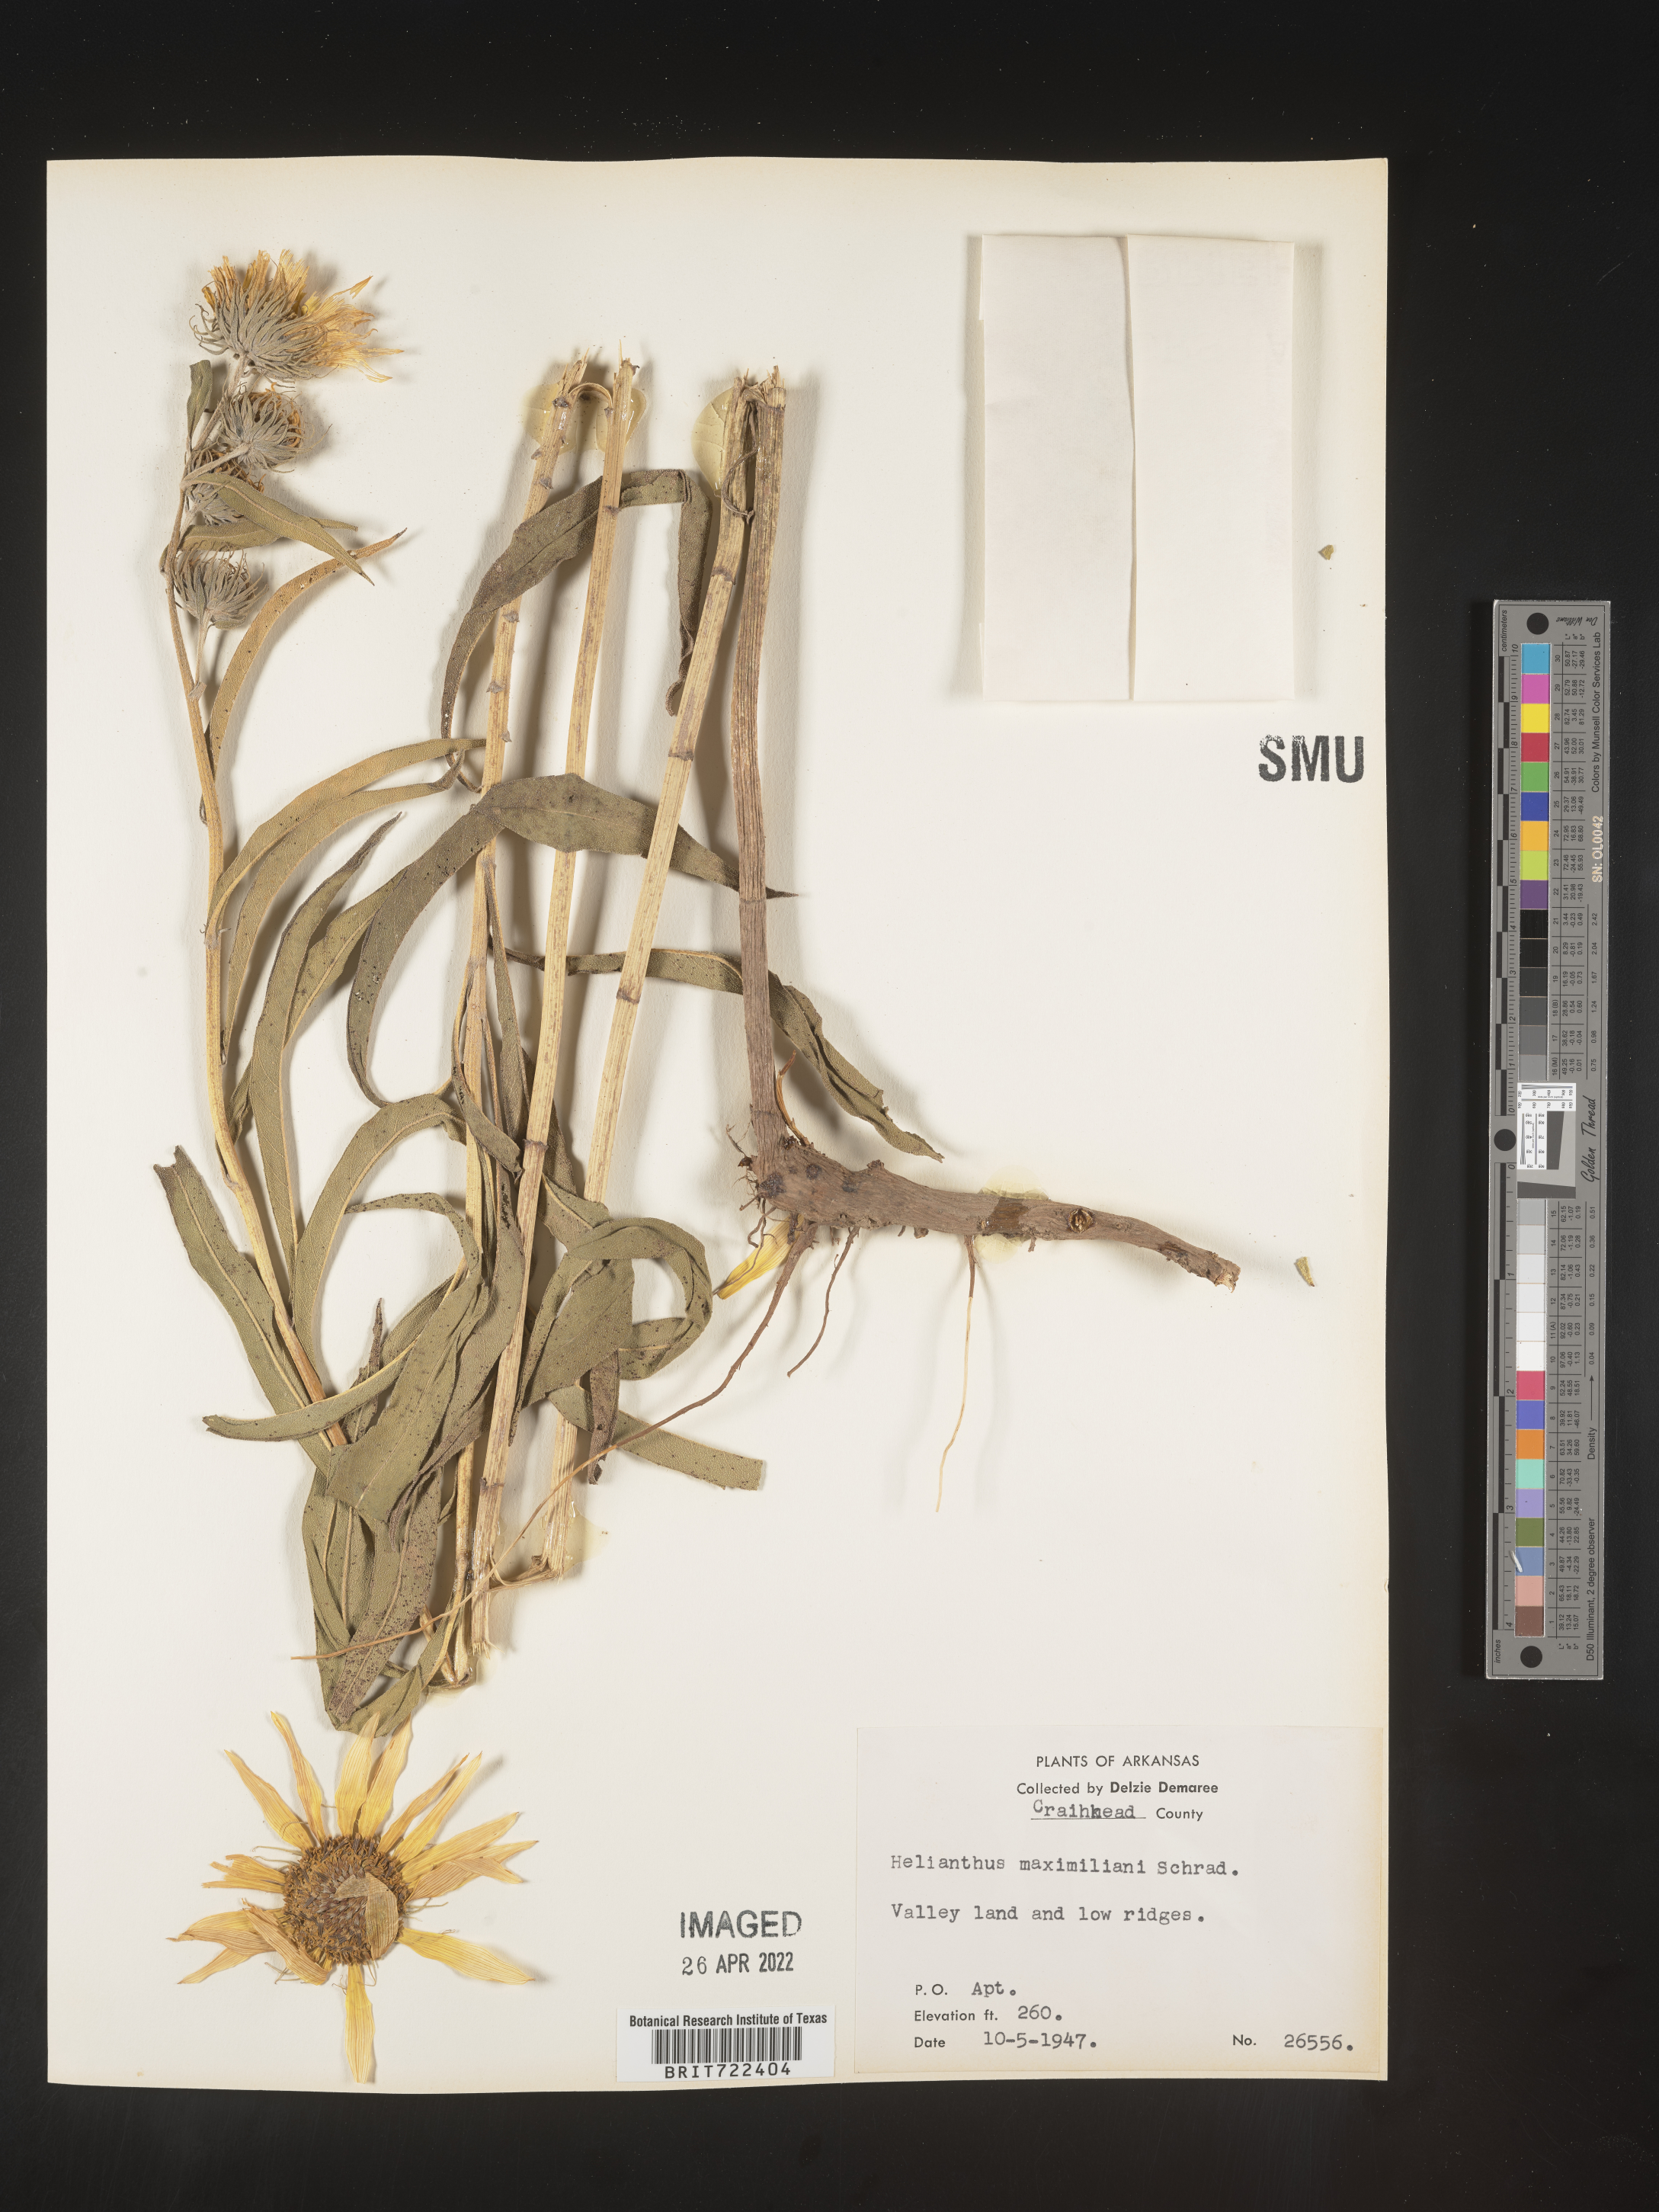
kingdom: Plantae
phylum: Tracheophyta
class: Magnoliopsida
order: Asterales
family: Asteraceae
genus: Helianthus
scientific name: Helianthus maximiliani
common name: Maximilian's sunflower
